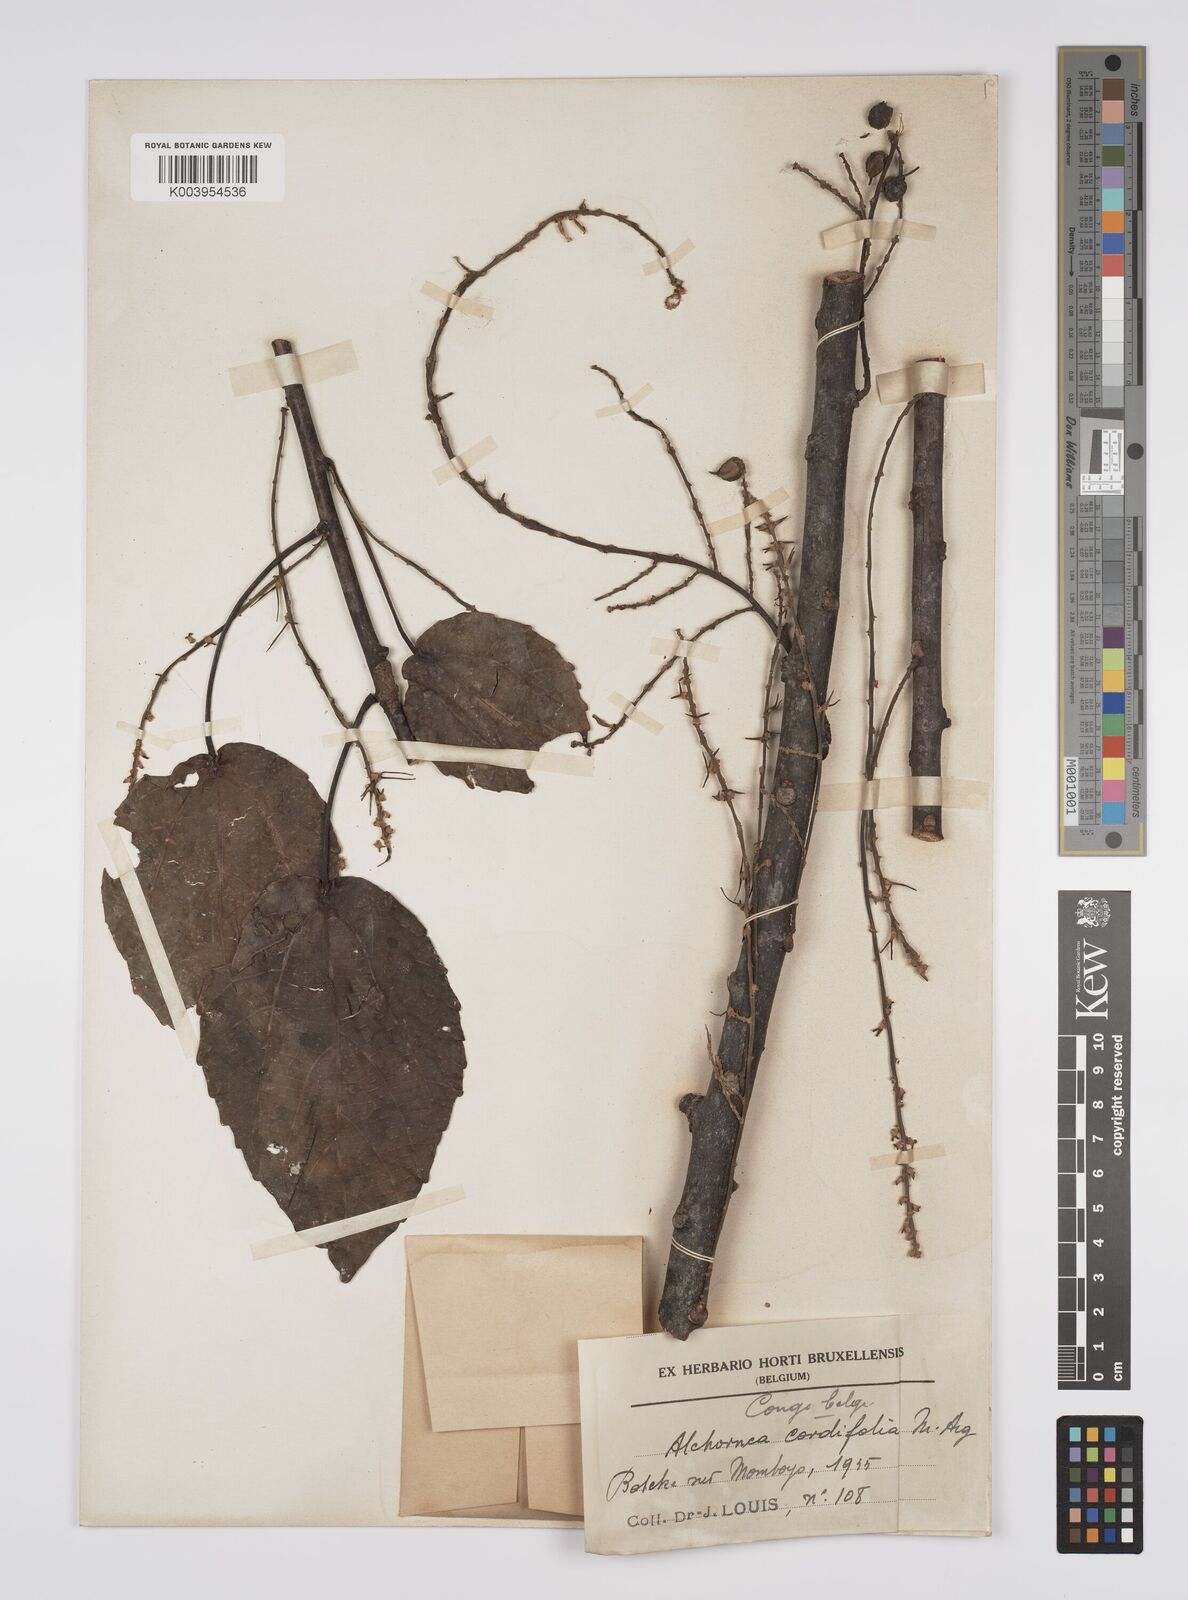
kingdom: Plantae
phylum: Tracheophyta
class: Magnoliopsida
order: Malpighiales
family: Euphorbiaceae
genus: Alchornea
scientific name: Alchornea cordifolia
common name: Christmasbush
